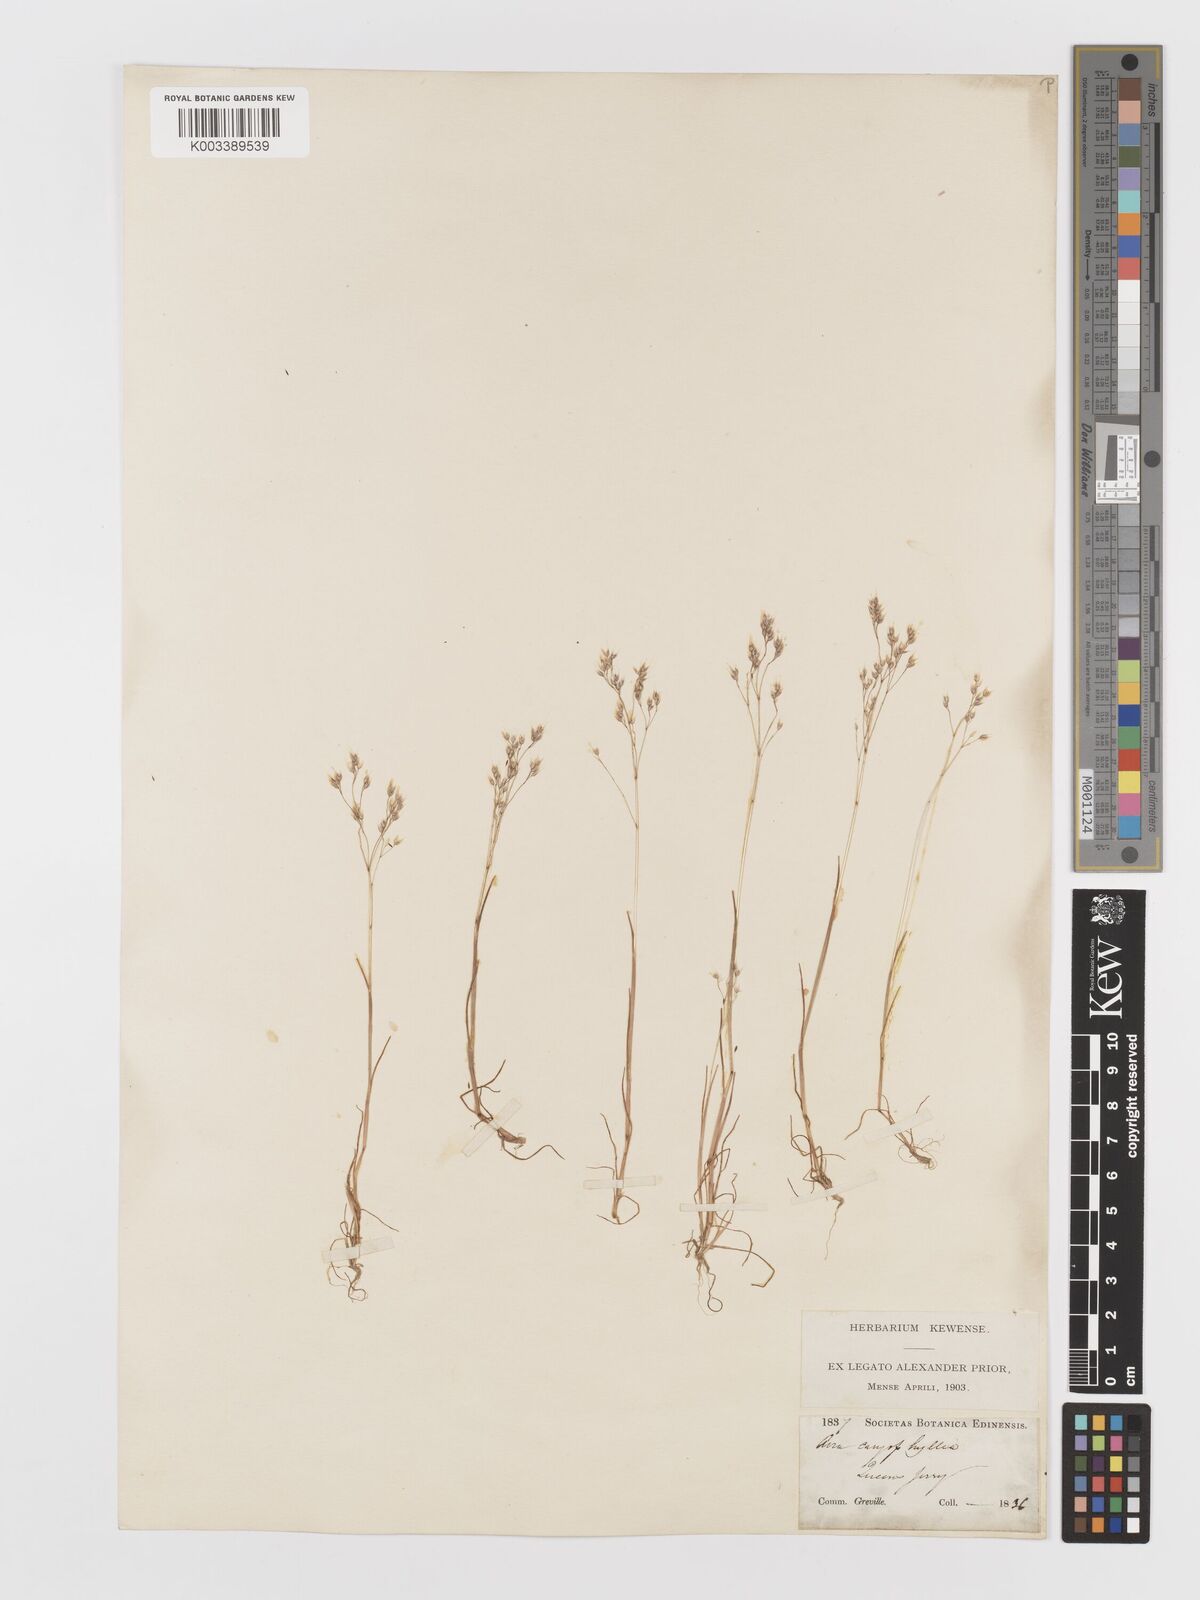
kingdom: Plantae
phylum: Tracheophyta
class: Liliopsida
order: Poales
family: Poaceae
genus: Aira
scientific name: Aira caryophyllea
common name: Silver hairgrass
